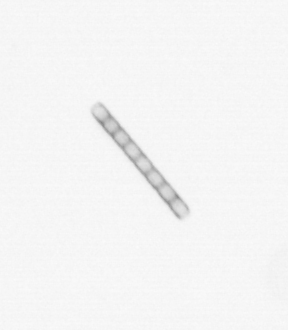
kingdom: Chromista
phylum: Ochrophyta
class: Bacillariophyceae
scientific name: Bacillariophyceae
